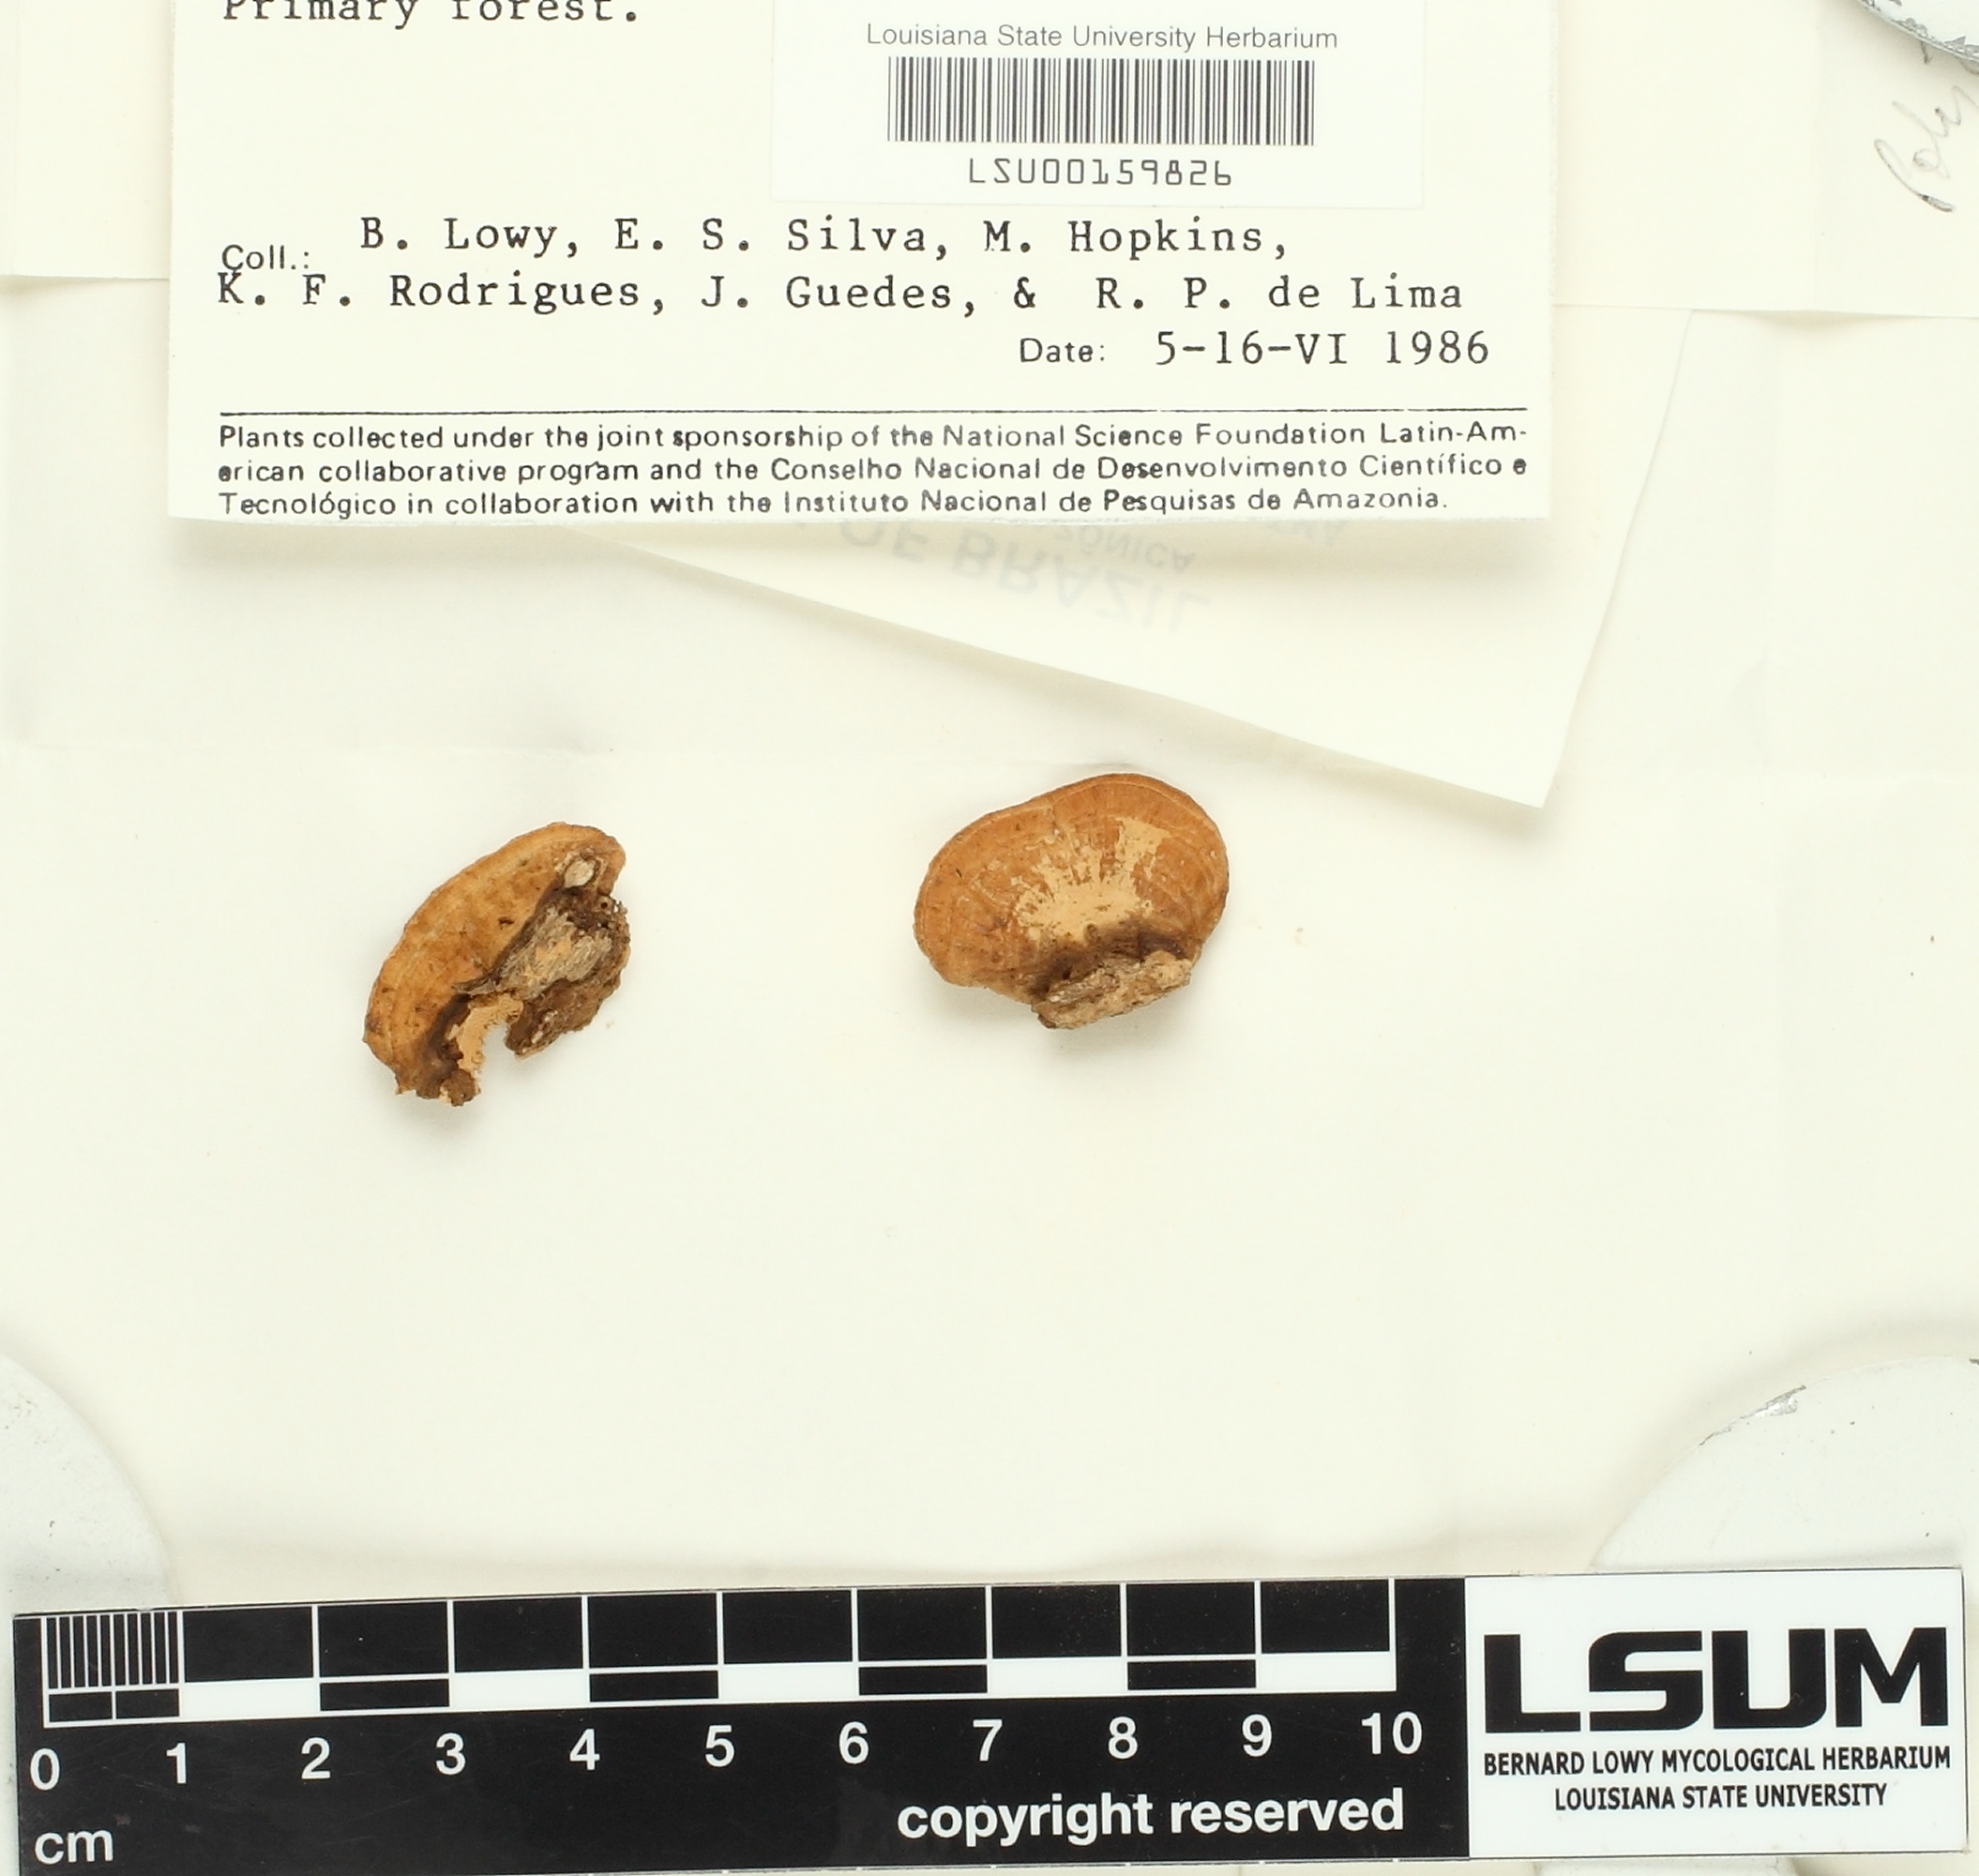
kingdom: Fungi
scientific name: Fungi
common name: Fungi
